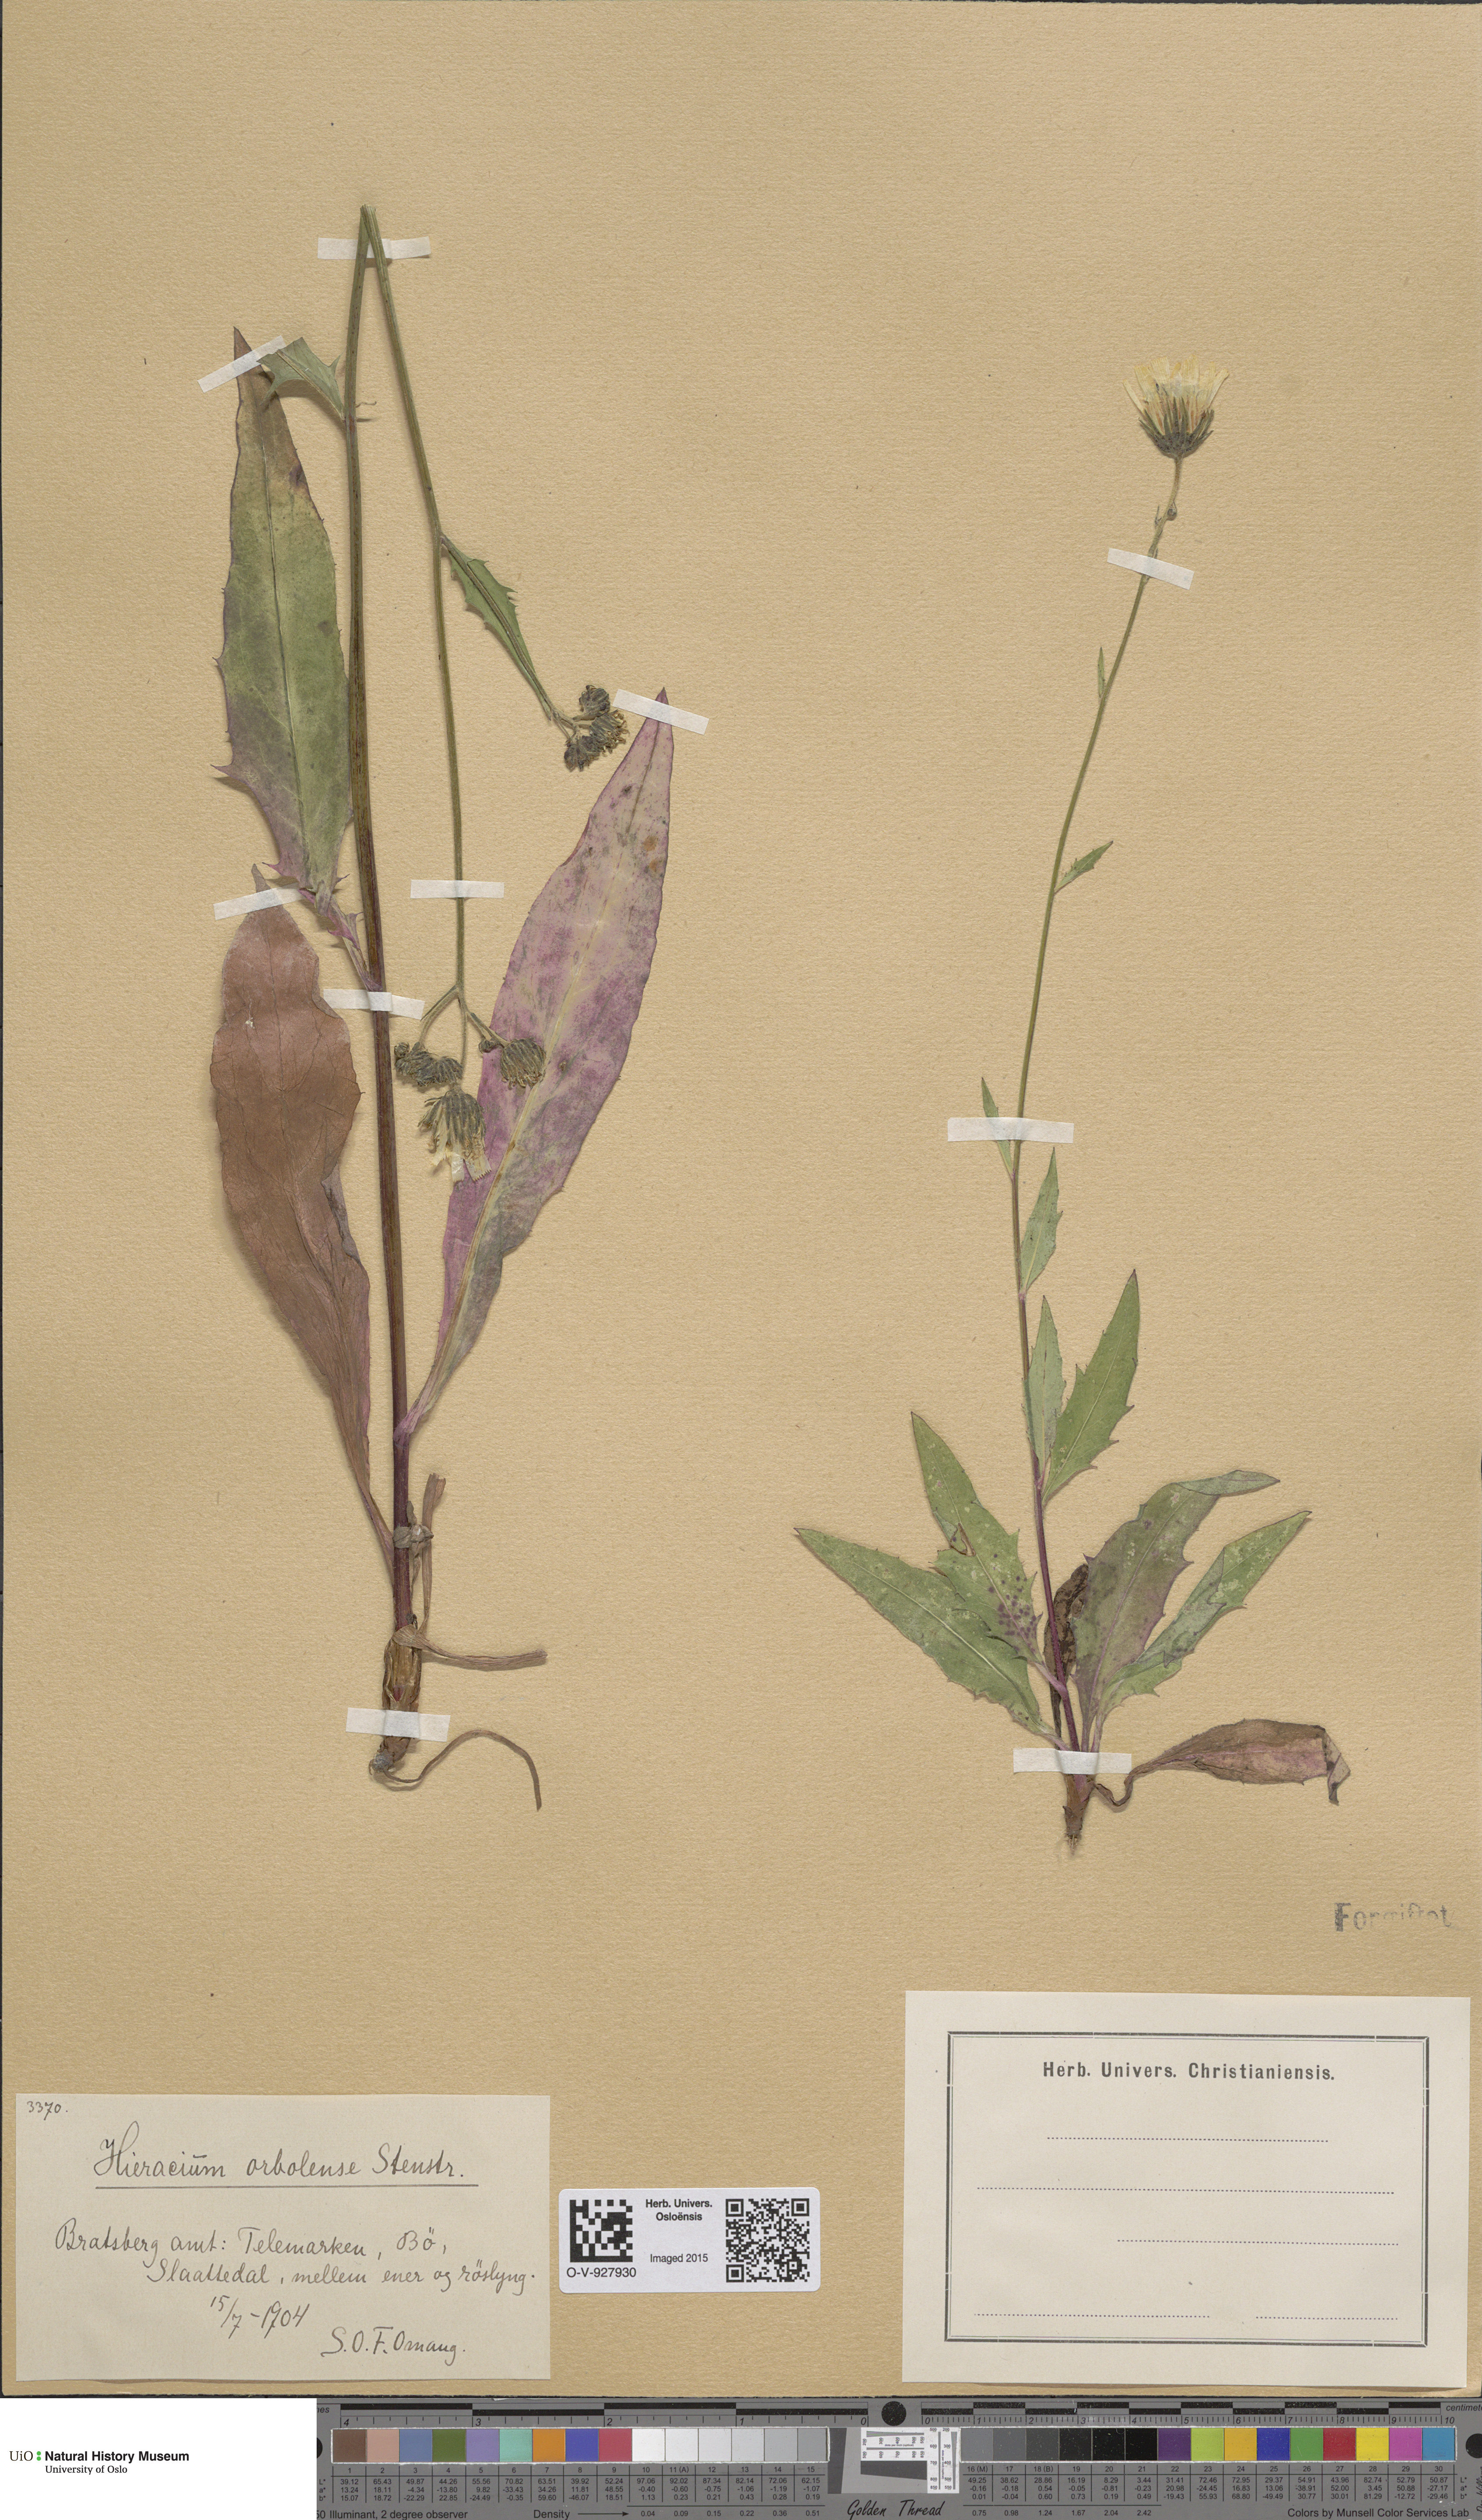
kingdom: Plantae
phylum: Tracheophyta
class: Magnoliopsida
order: Asterales
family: Asteraceae
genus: Hieracium
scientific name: Hieracium orbolense
